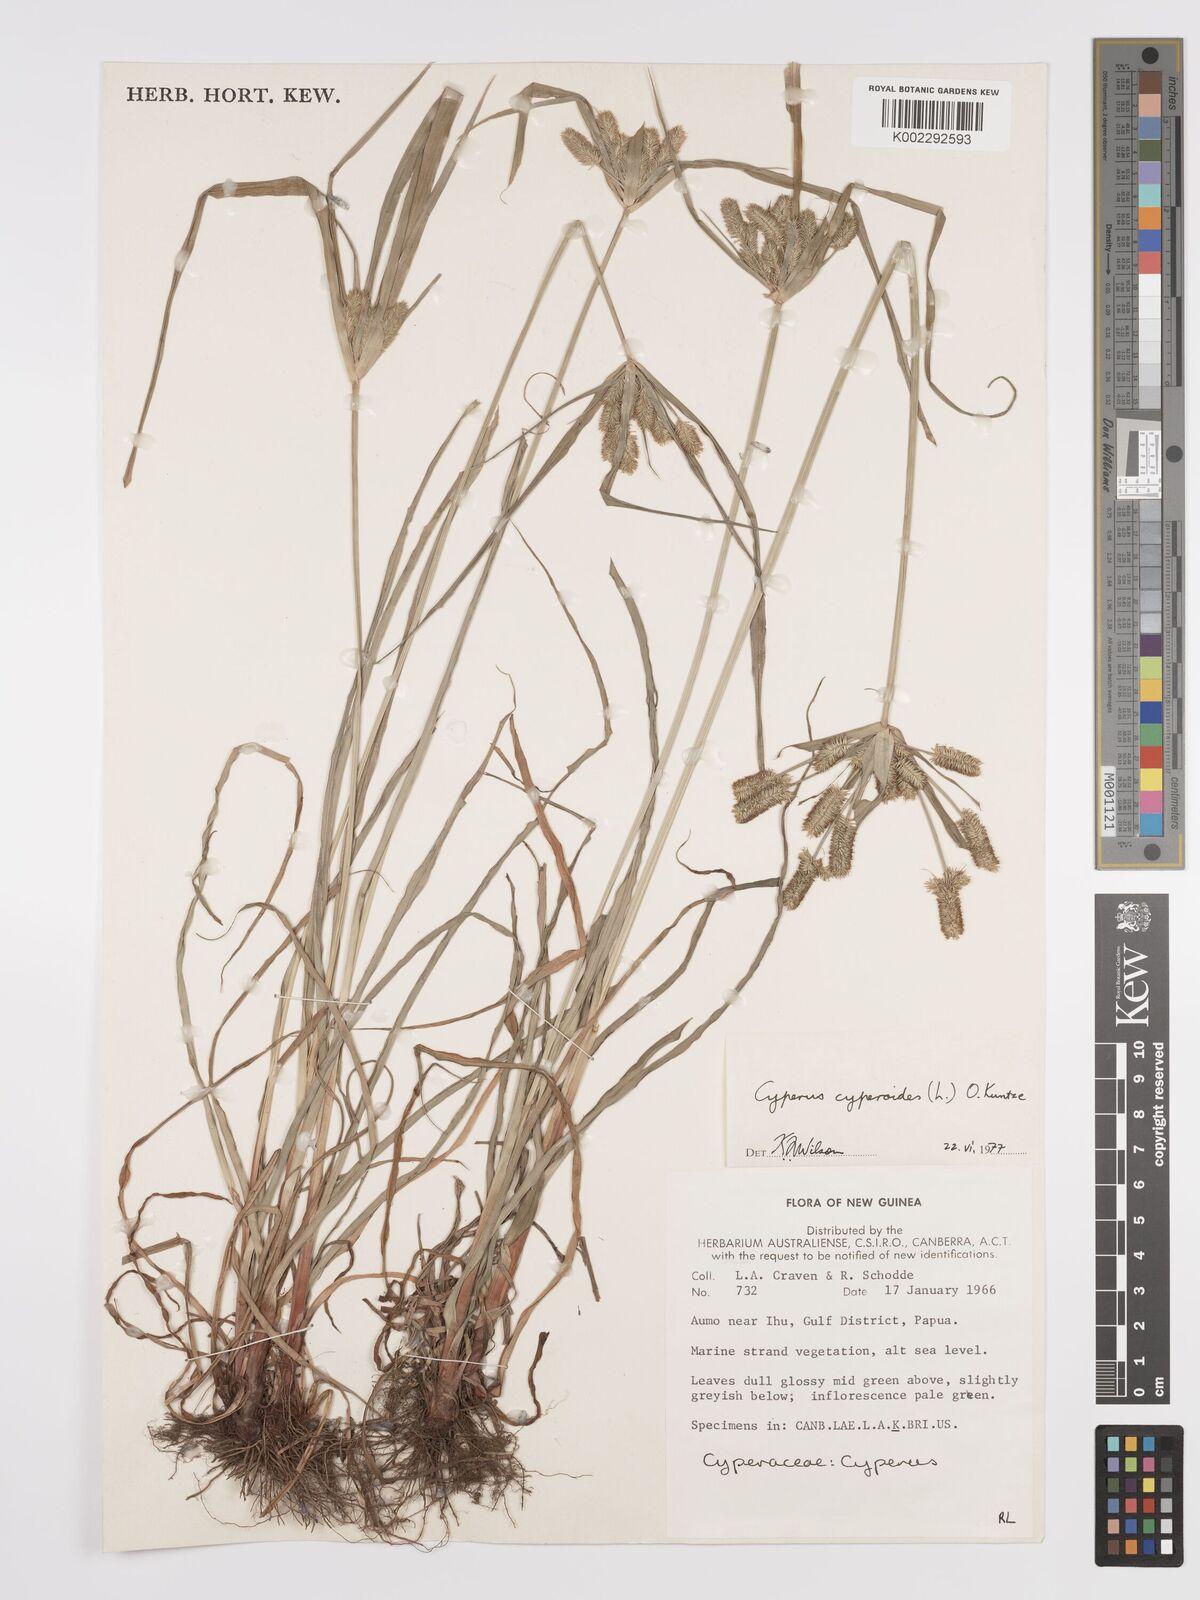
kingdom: Plantae
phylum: Tracheophyta
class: Liliopsida
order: Poales
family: Cyperaceae
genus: Cyperus
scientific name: Cyperus cyperoides
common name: Pacific island flat sedge
